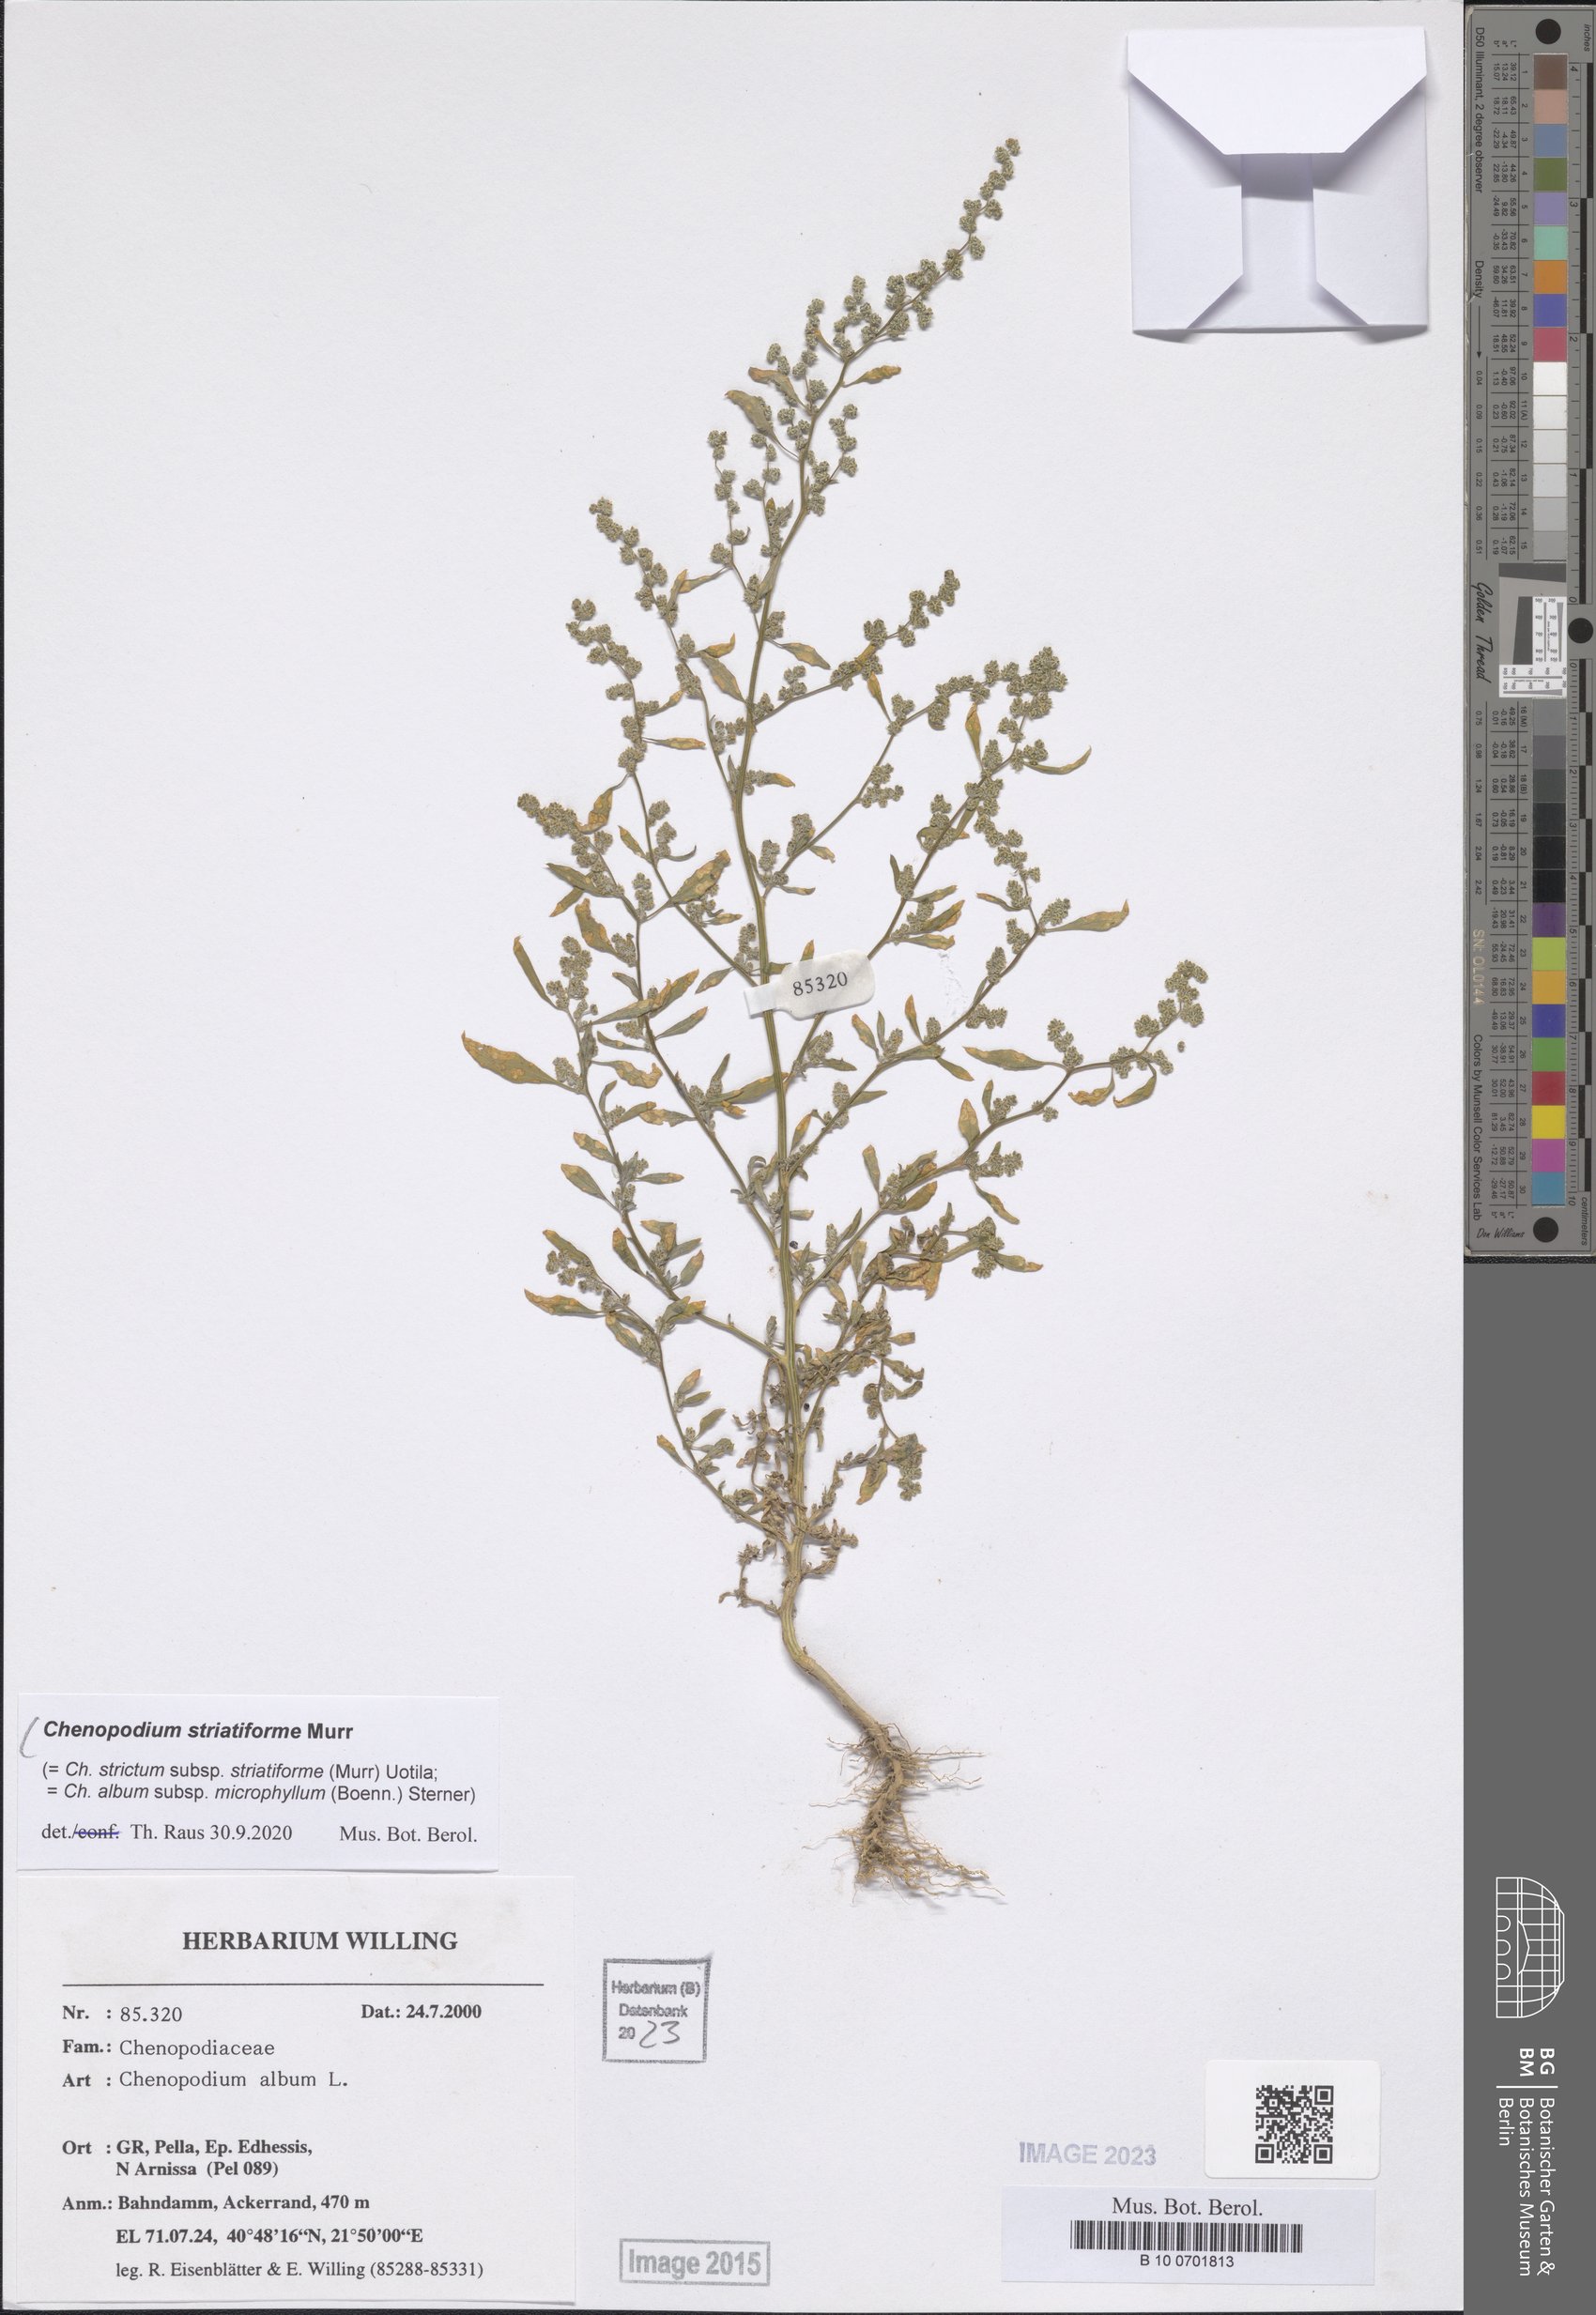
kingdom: Plantae
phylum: Tracheophyta
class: Magnoliopsida
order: Caryophyllales
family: Amaranthaceae
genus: Chenopodium
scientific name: Chenopodium striatiforme
